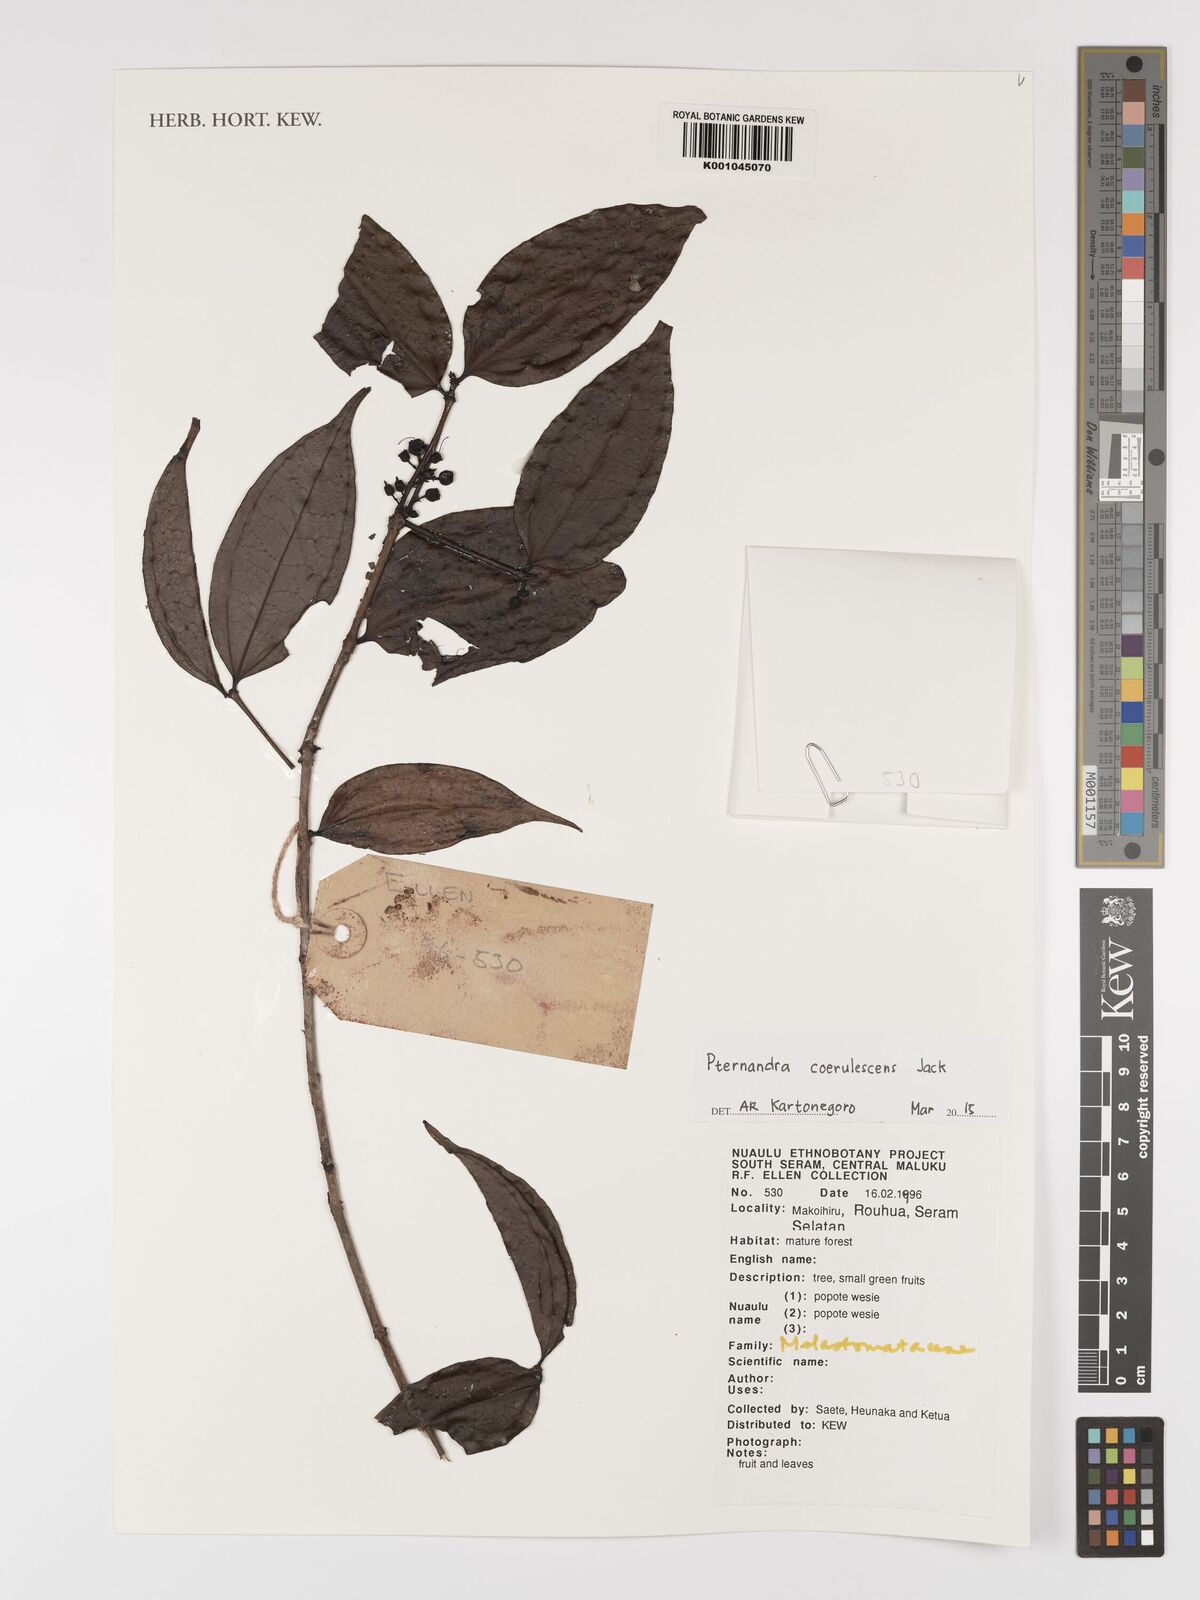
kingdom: Plantae
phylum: Tracheophyta
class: Magnoliopsida
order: Myrtales
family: Melastomataceae
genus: Pternandra
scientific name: Pternandra coerulescens
